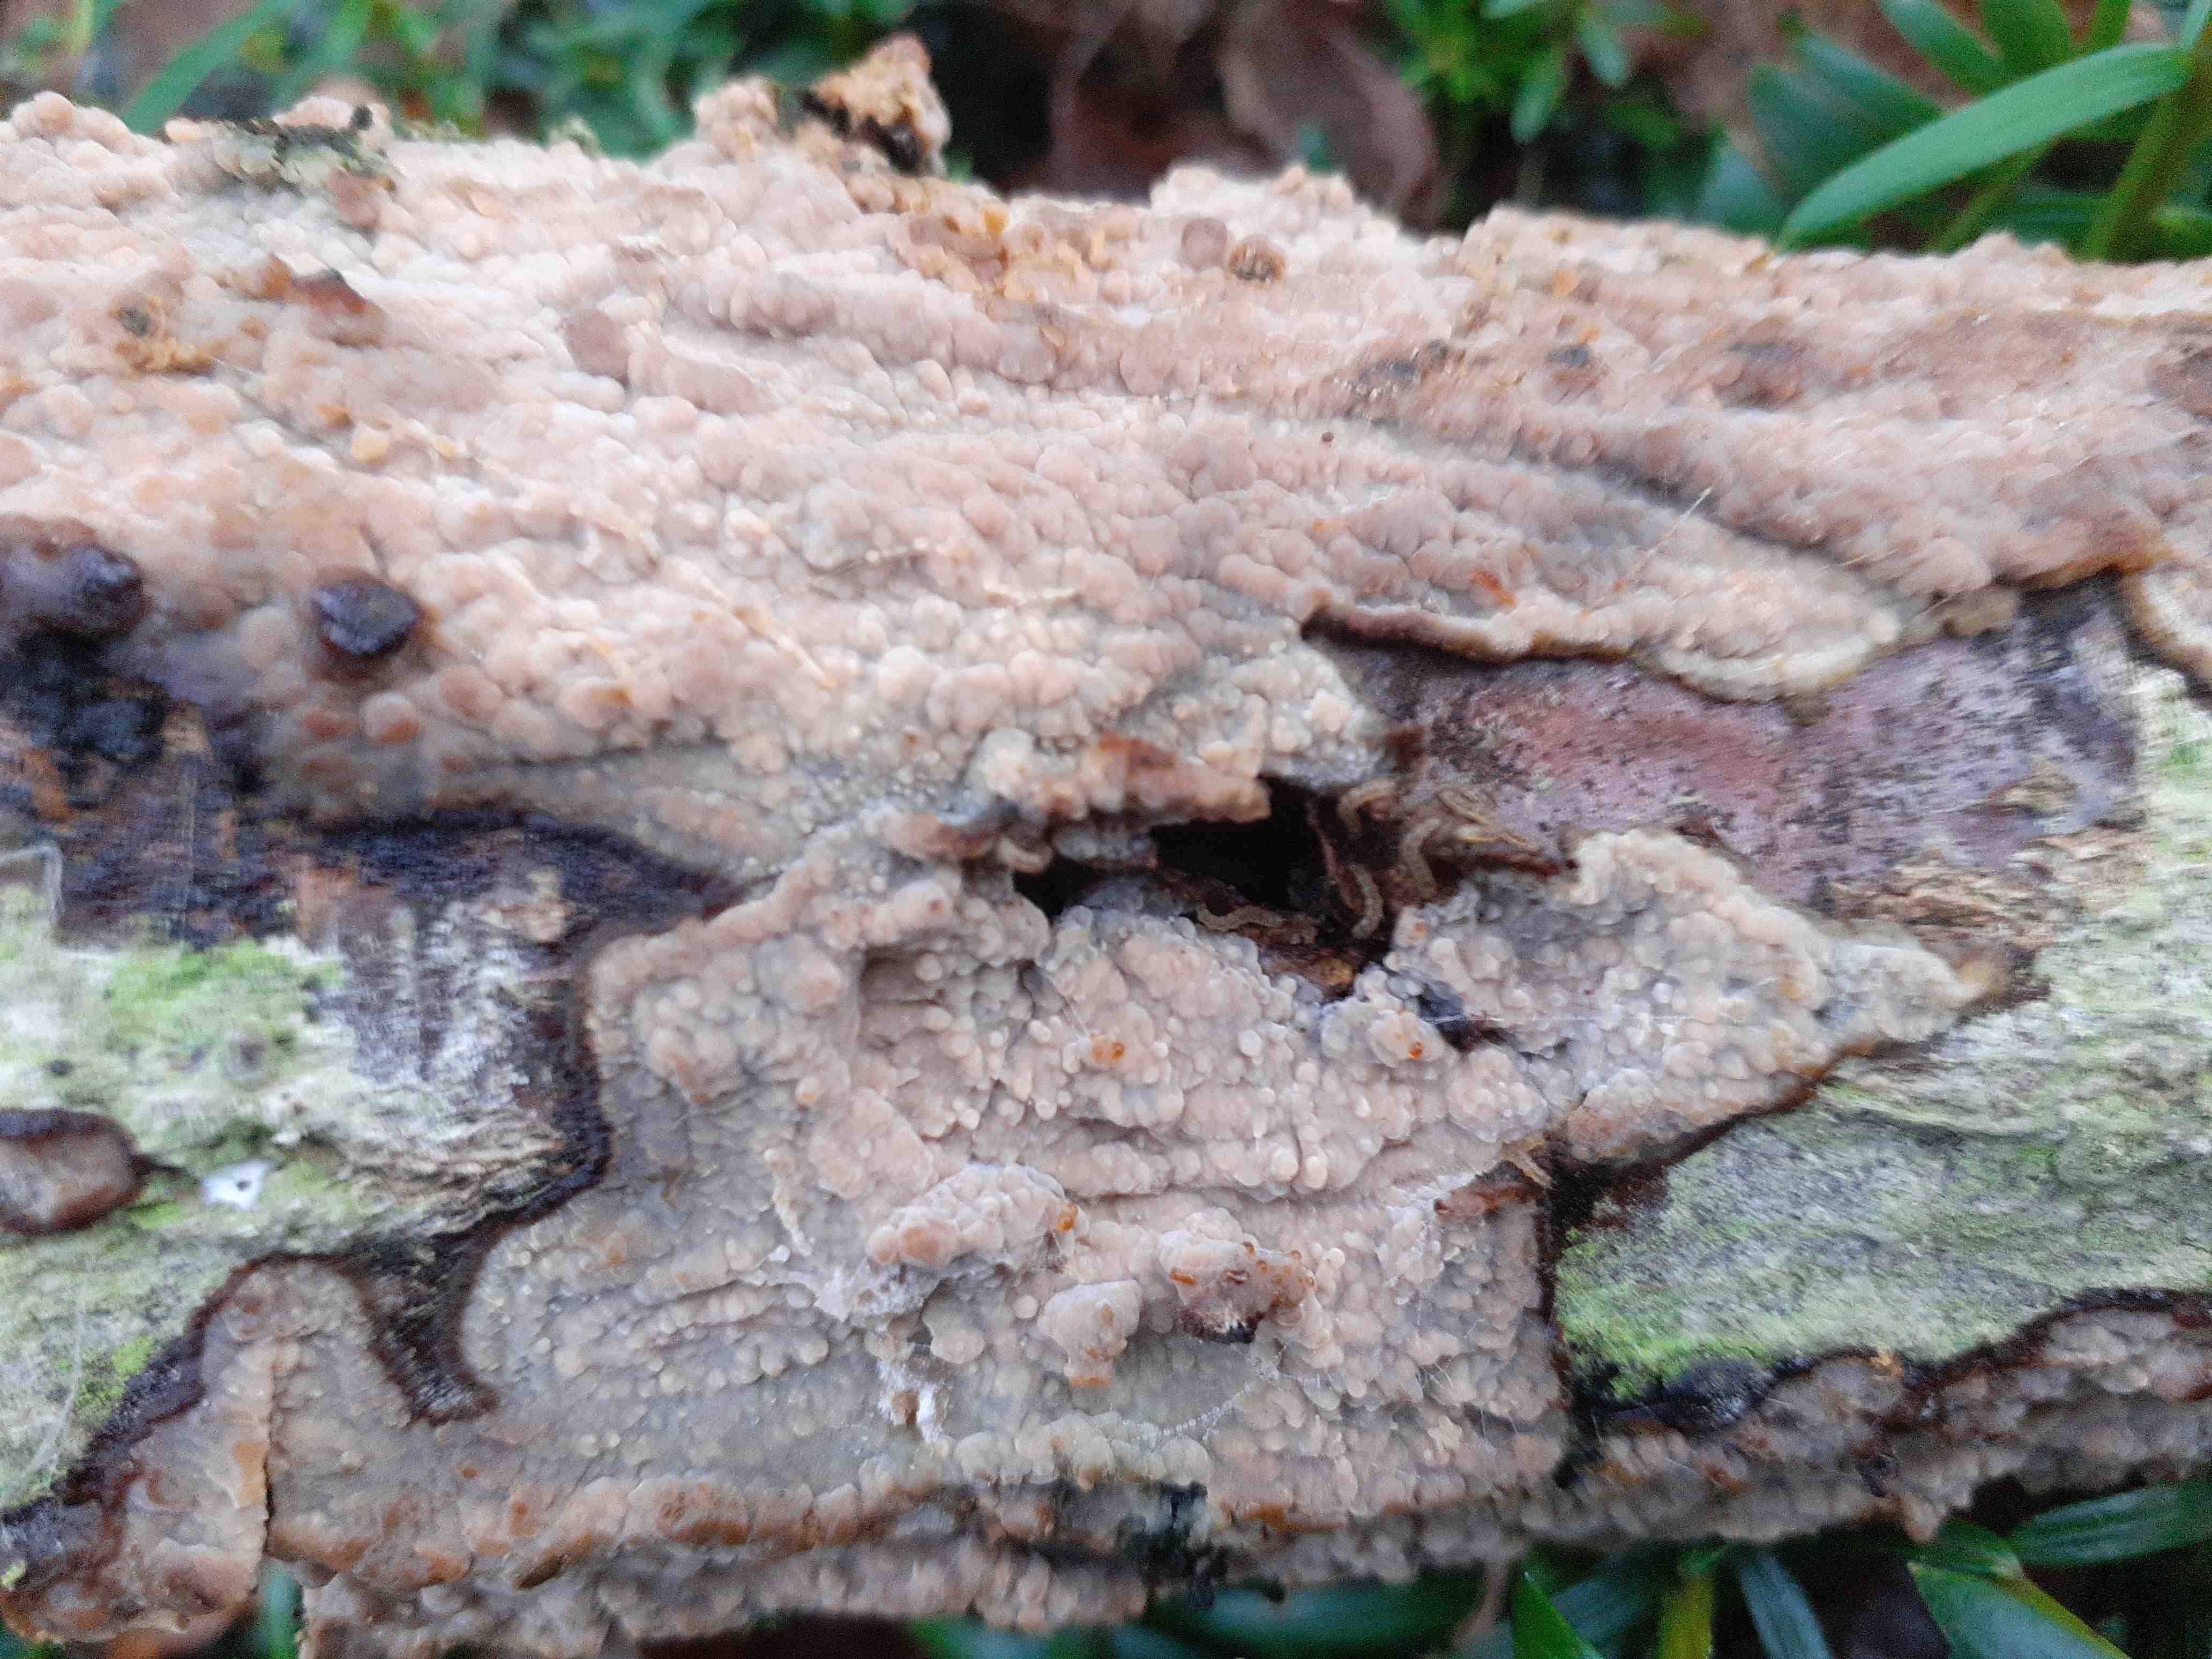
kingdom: Fungi
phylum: Basidiomycota
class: Agaricomycetes
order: Agaricales
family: Radulomycetaceae
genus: Radulomyces
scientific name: Radulomyces confluens
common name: glat naftalinskind
